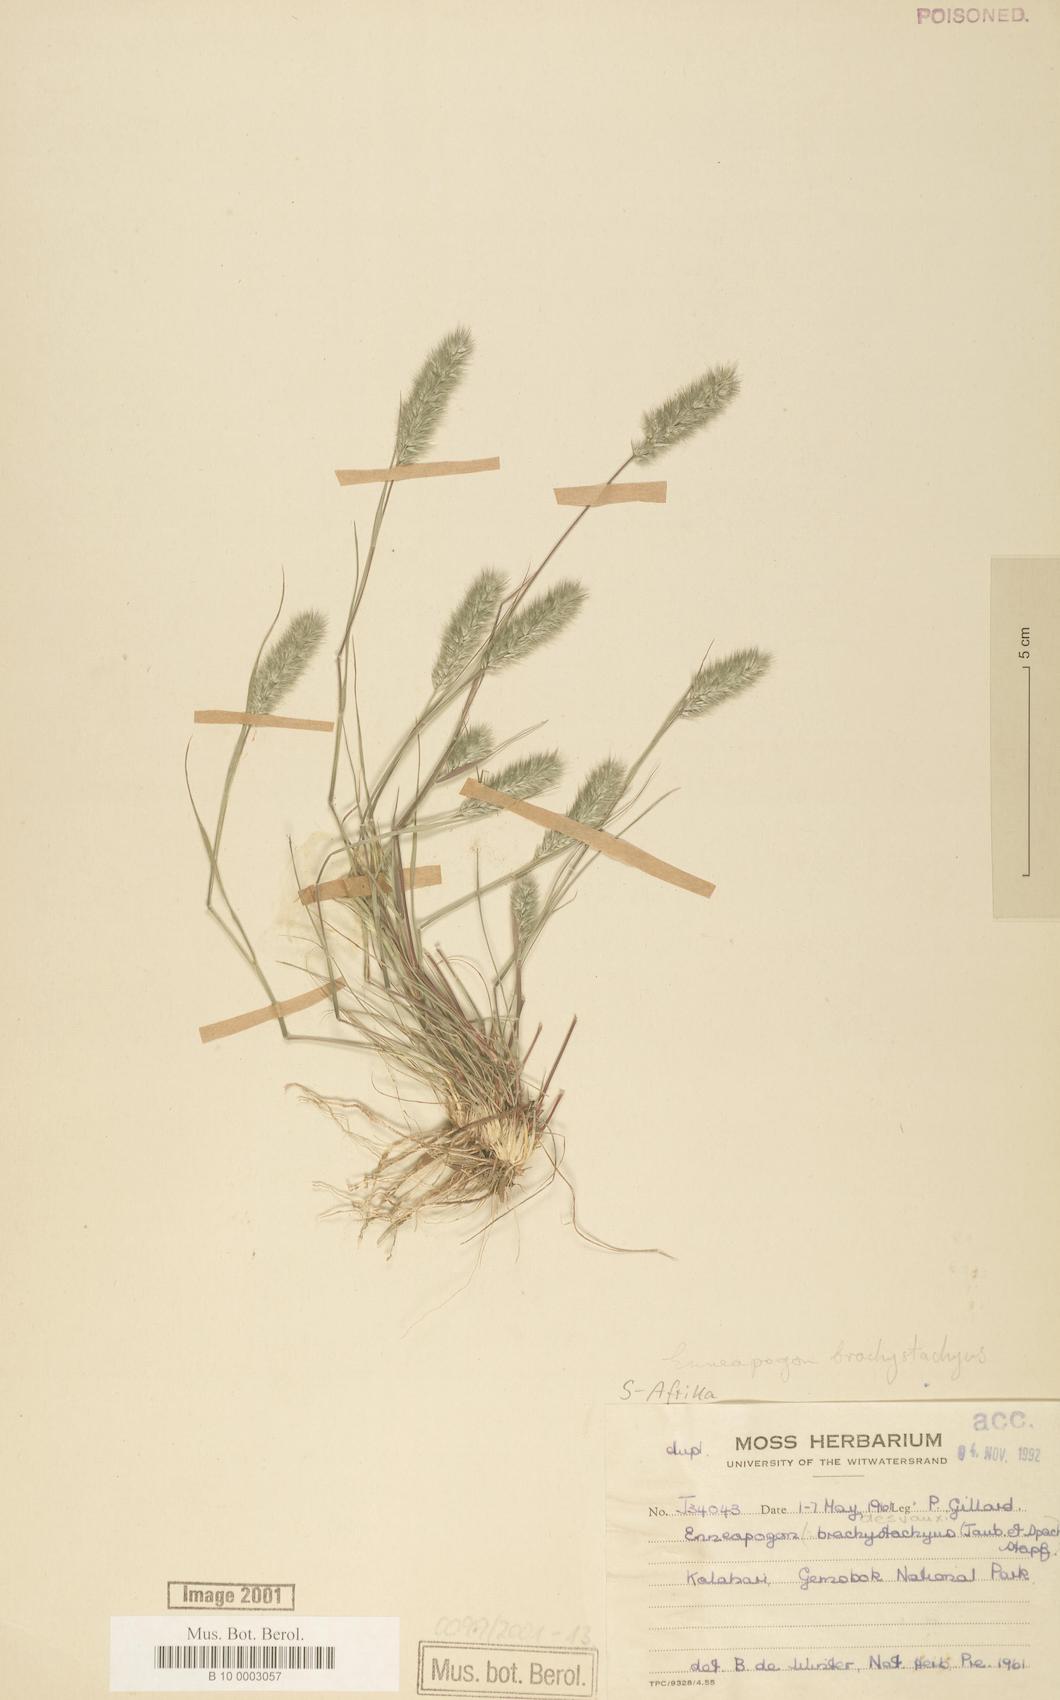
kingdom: Plantae
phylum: Tracheophyta
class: Liliopsida
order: Poales
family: Poaceae
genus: Enneapogon
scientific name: Enneapogon desvauxii
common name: Feather pappus grass
